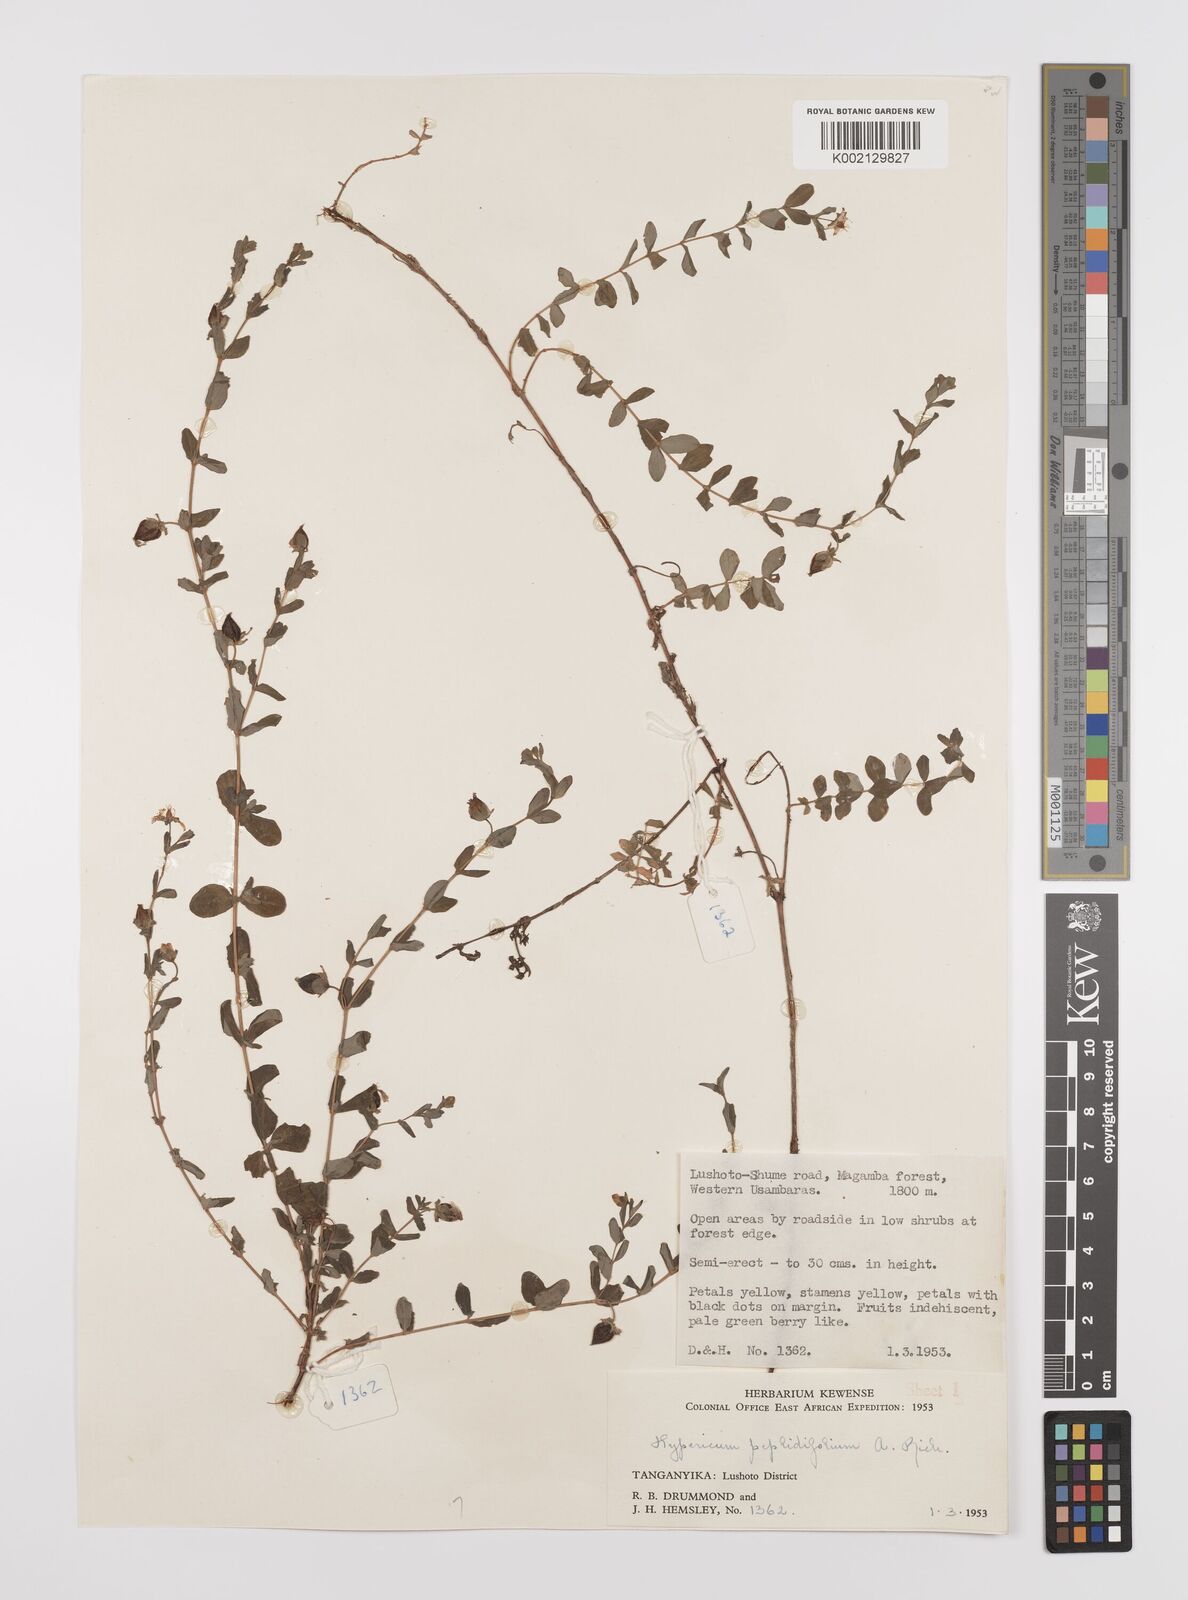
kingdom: Plantae
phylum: Tracheophyta
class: Magnoliopsida
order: Malpighiales
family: Hypericaceae
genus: Hypericum
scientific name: Hypericum peplidifolium
